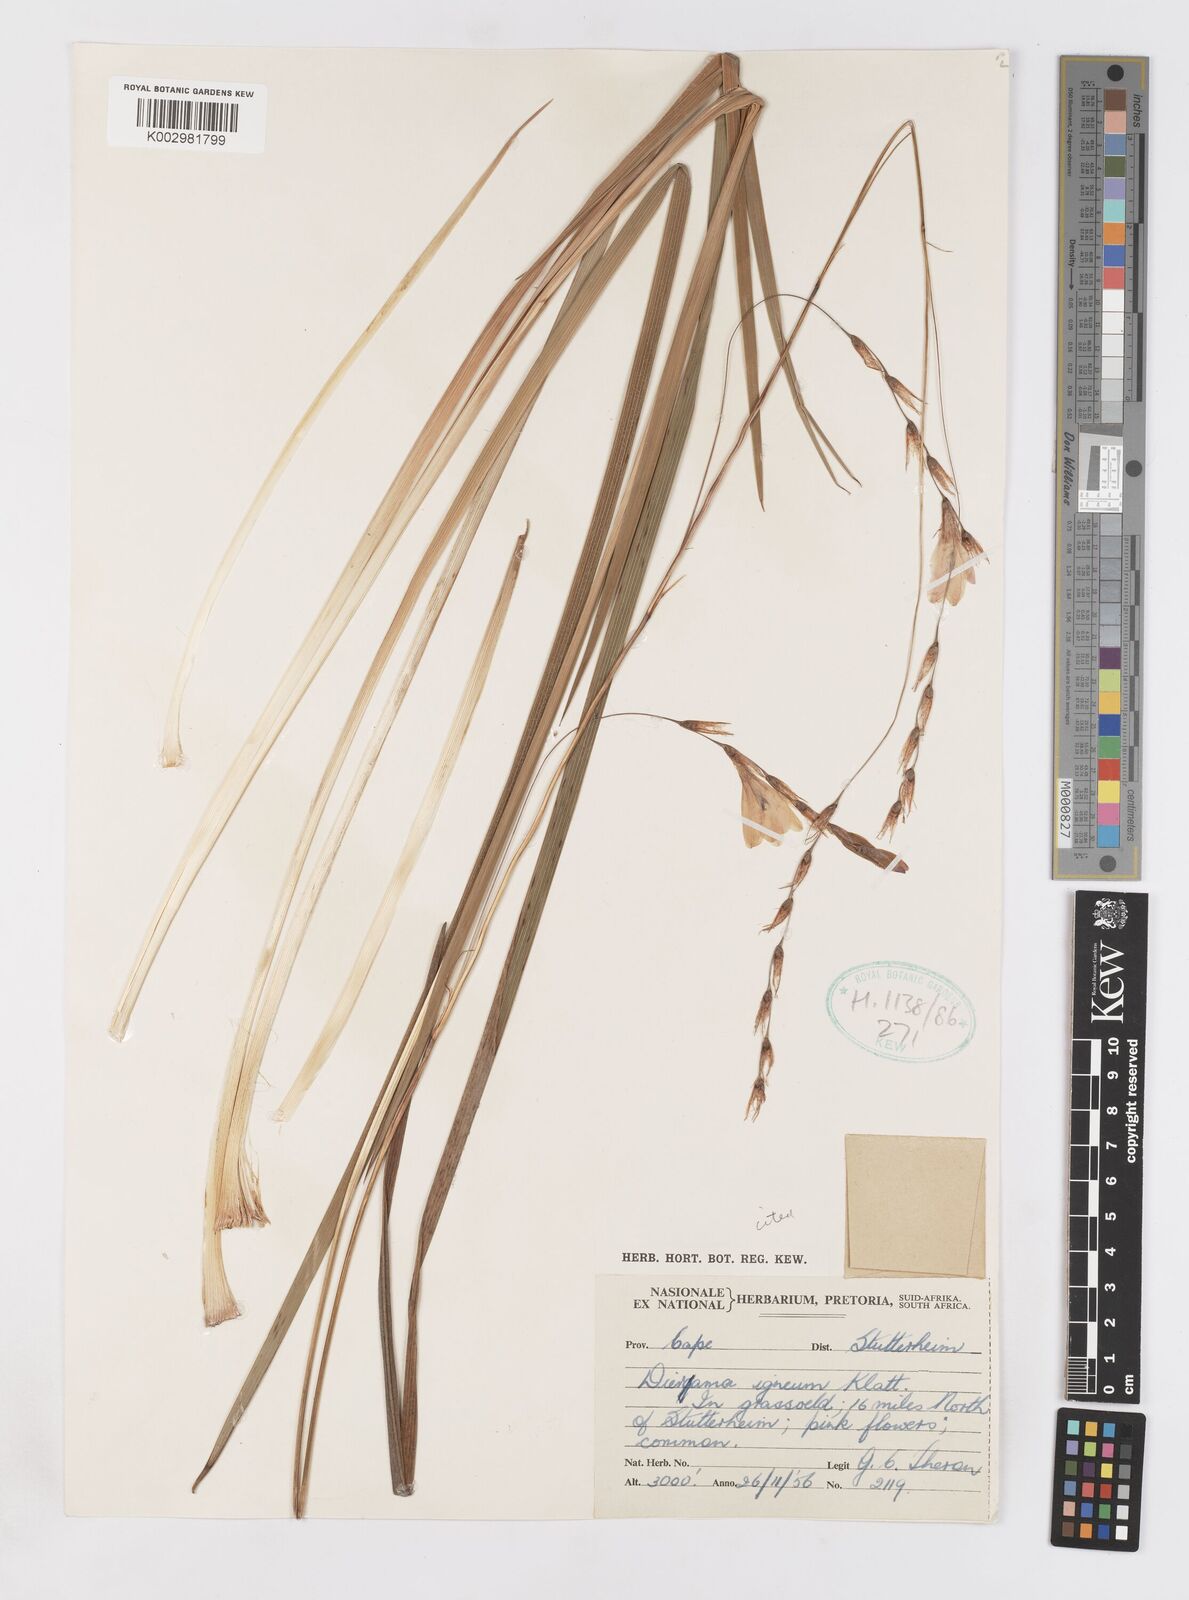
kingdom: Plantae
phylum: Tracheophyta
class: Liliopsida
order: Asparagales
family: Iridaceae
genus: Dierama
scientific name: Dierama igneum
